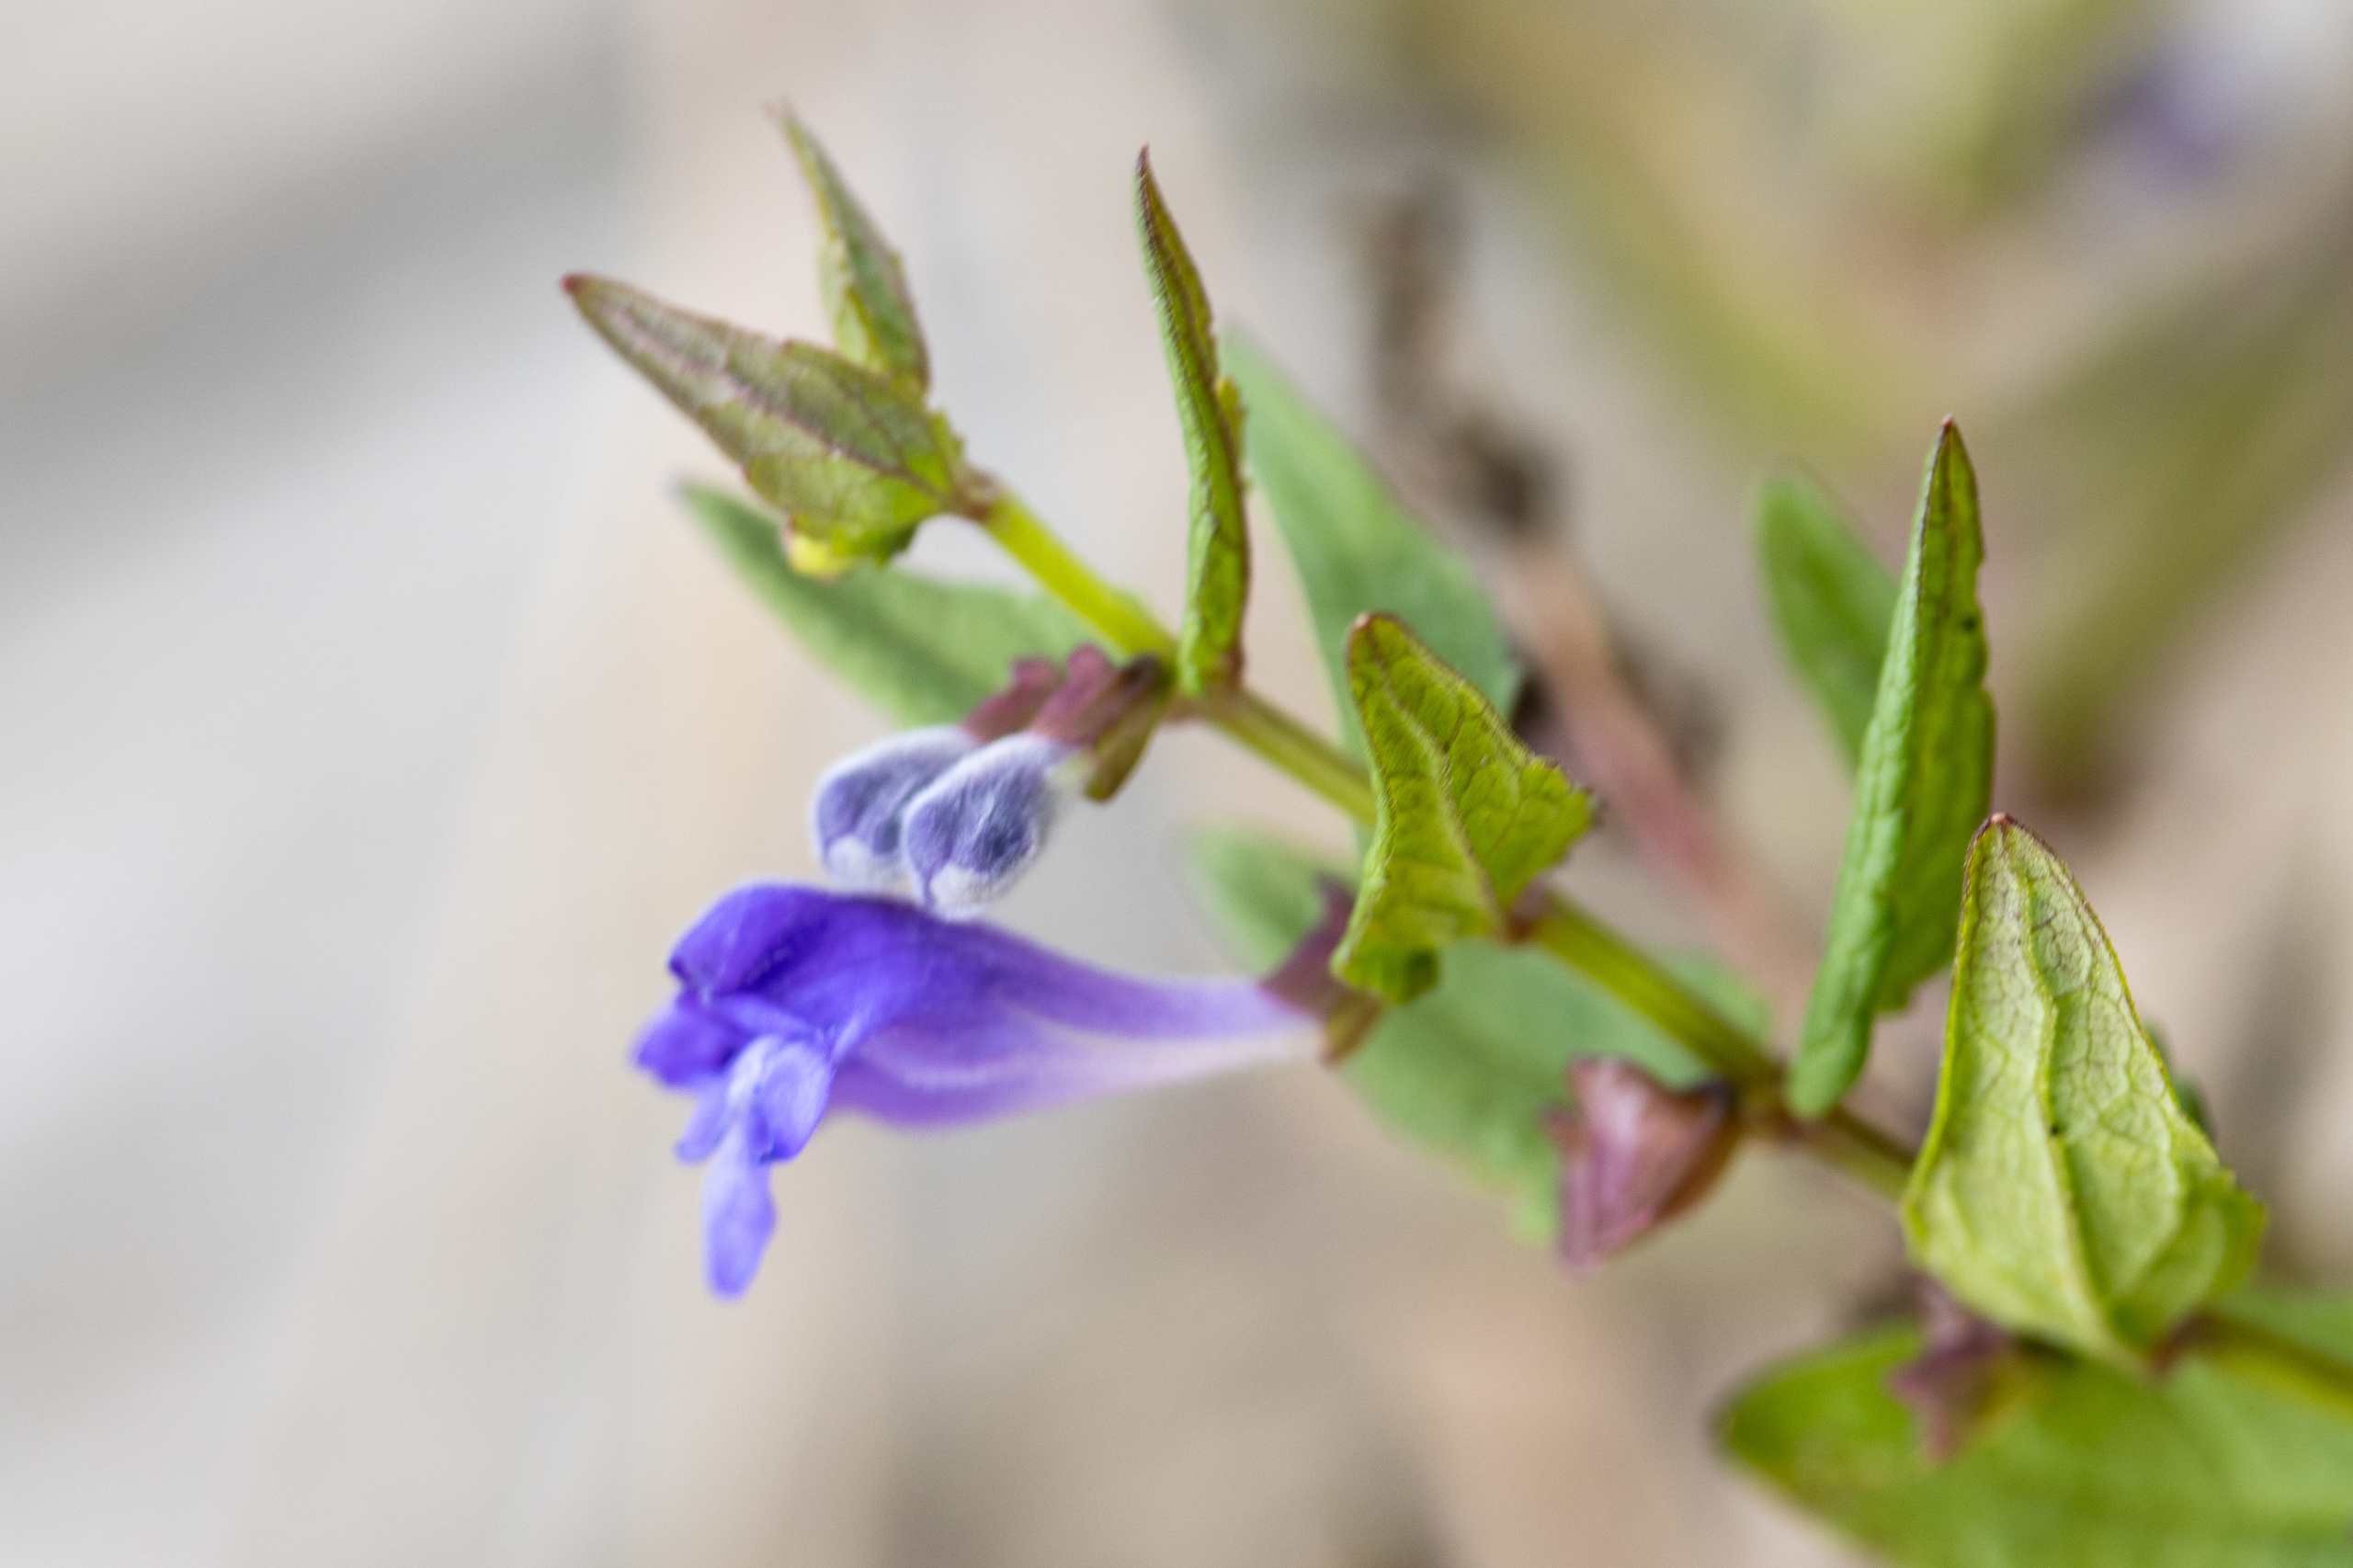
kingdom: Plantae
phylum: Tracheophyta
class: Magnoliopsida
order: Lamiales
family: Lamiaceae
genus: Scutellaria
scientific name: Scutellaria galericulata
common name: Almindelig skjolddrager
